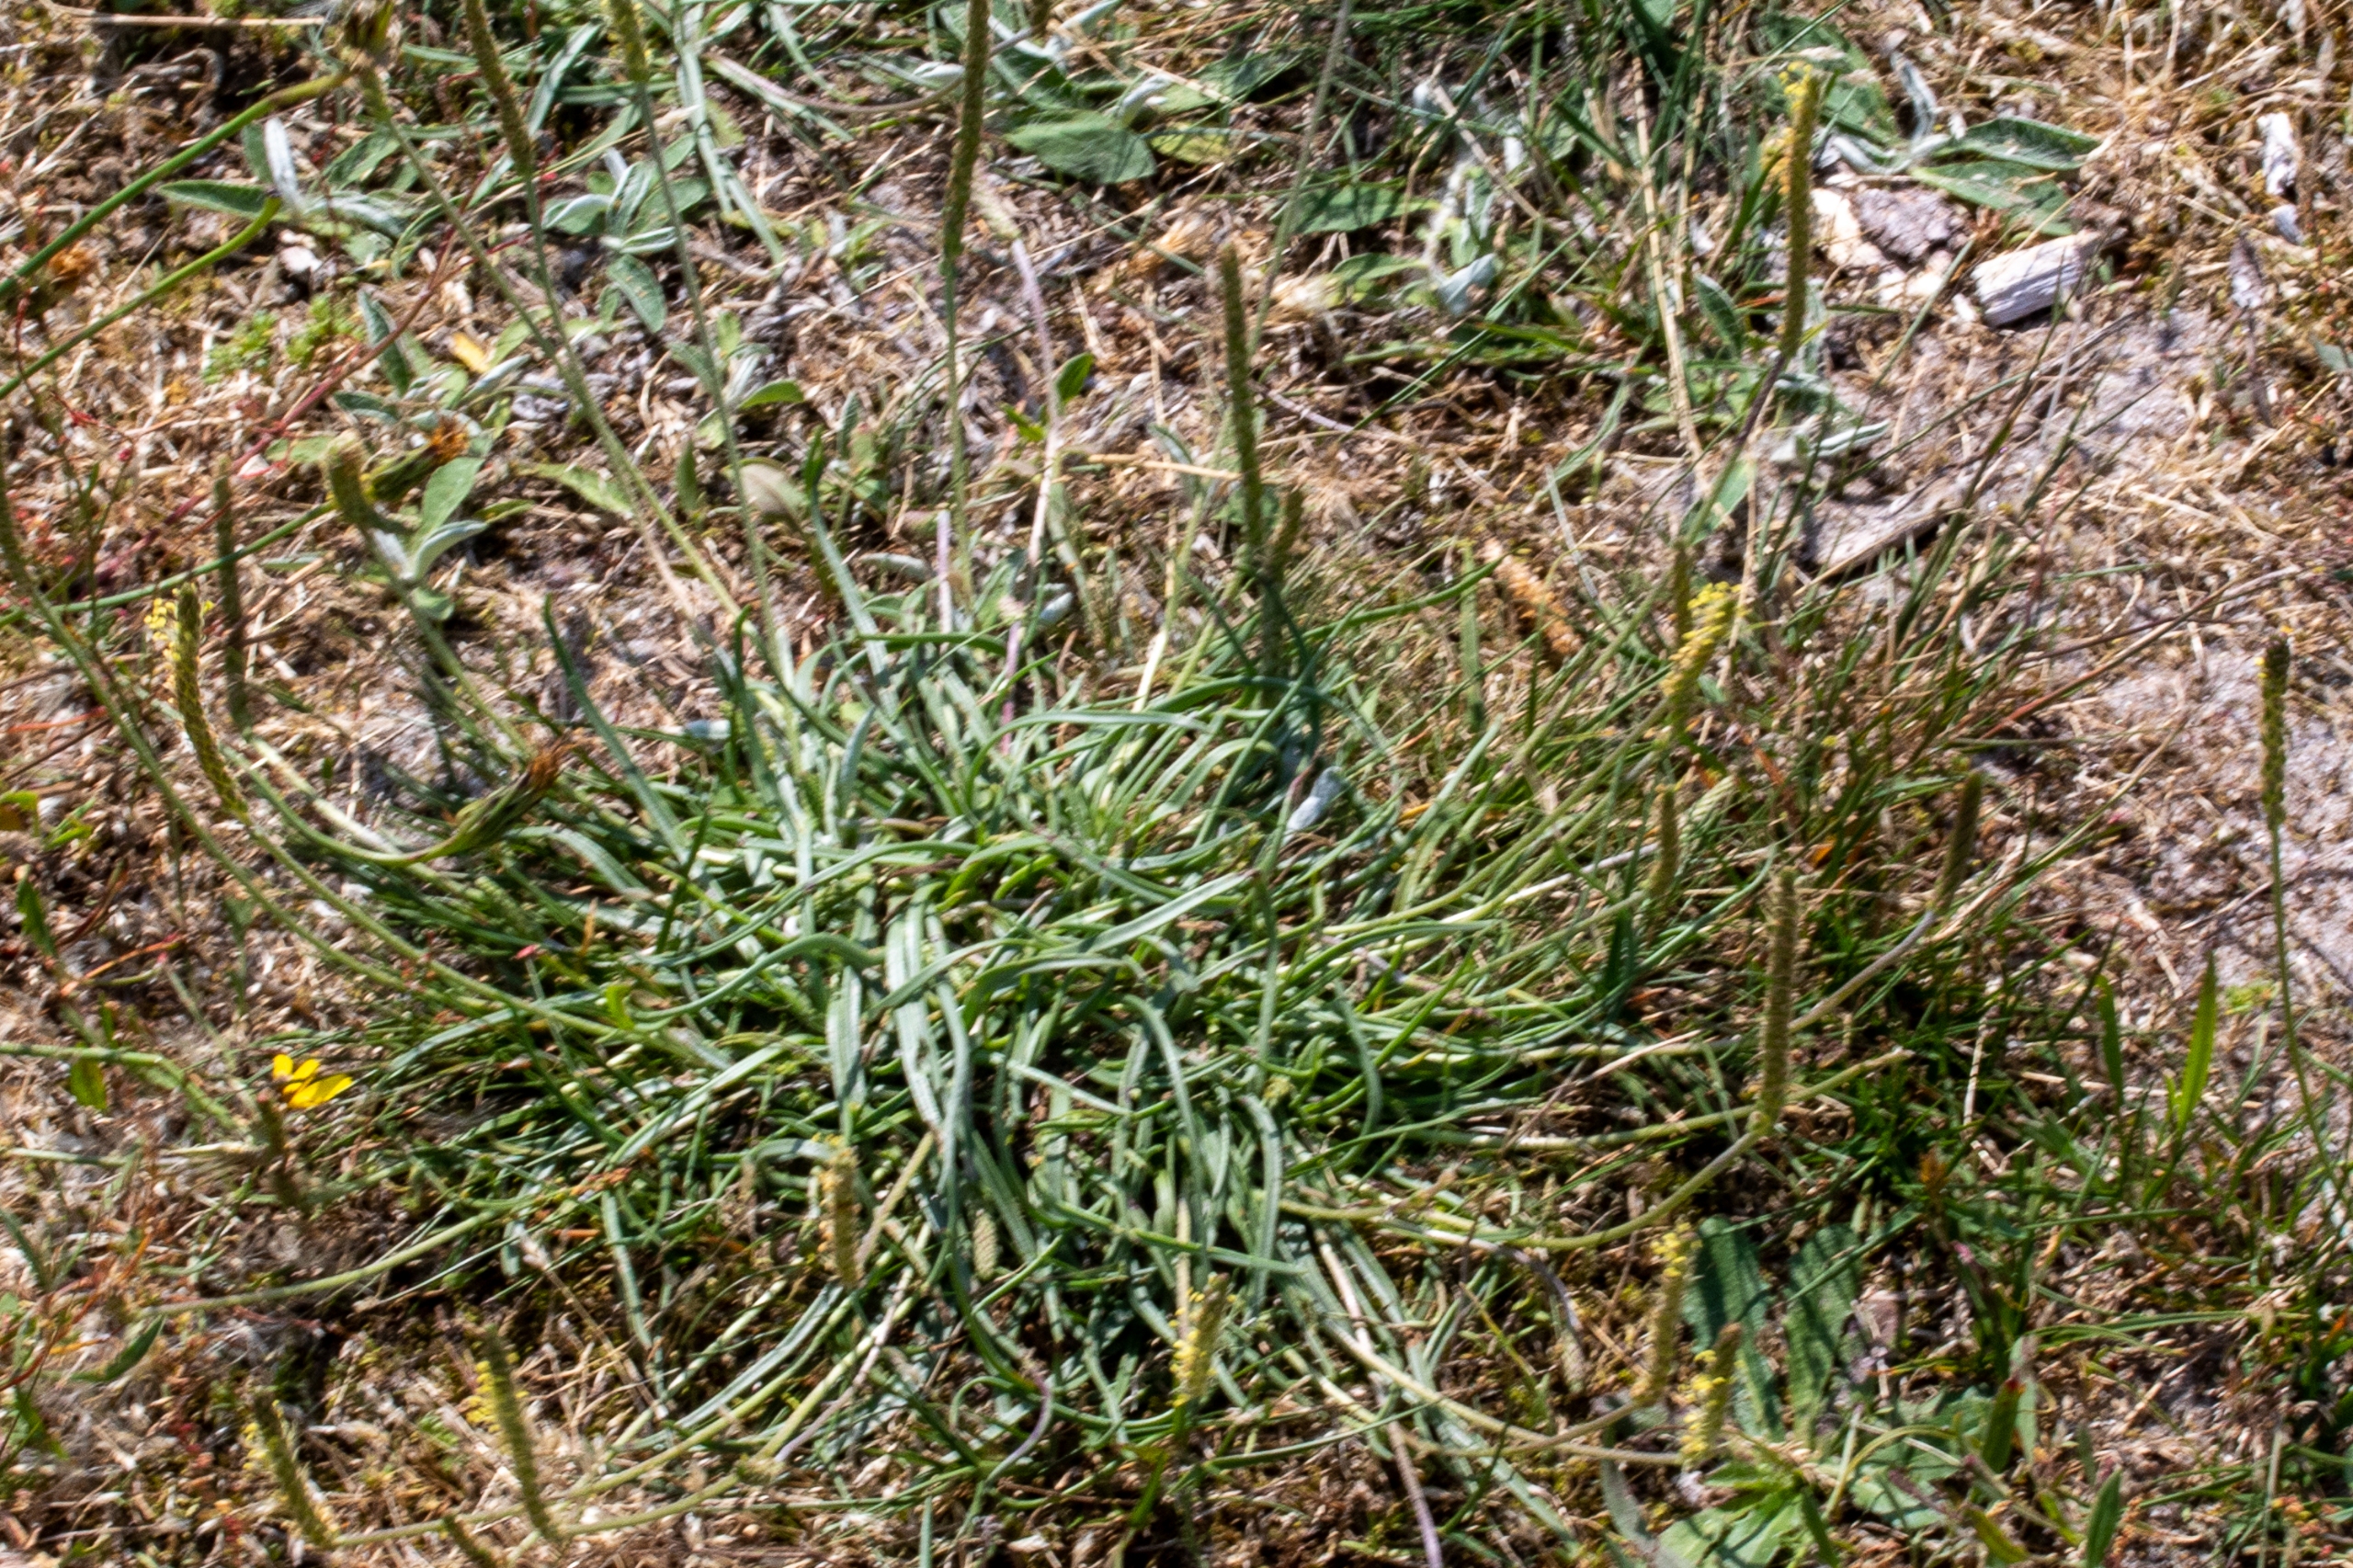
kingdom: Plantae
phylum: Tracheophyta
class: Magnoliopsida
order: Lamiales
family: Plantaginaceae
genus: Plantago
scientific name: Plantago maritima
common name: Strand-vejbred
